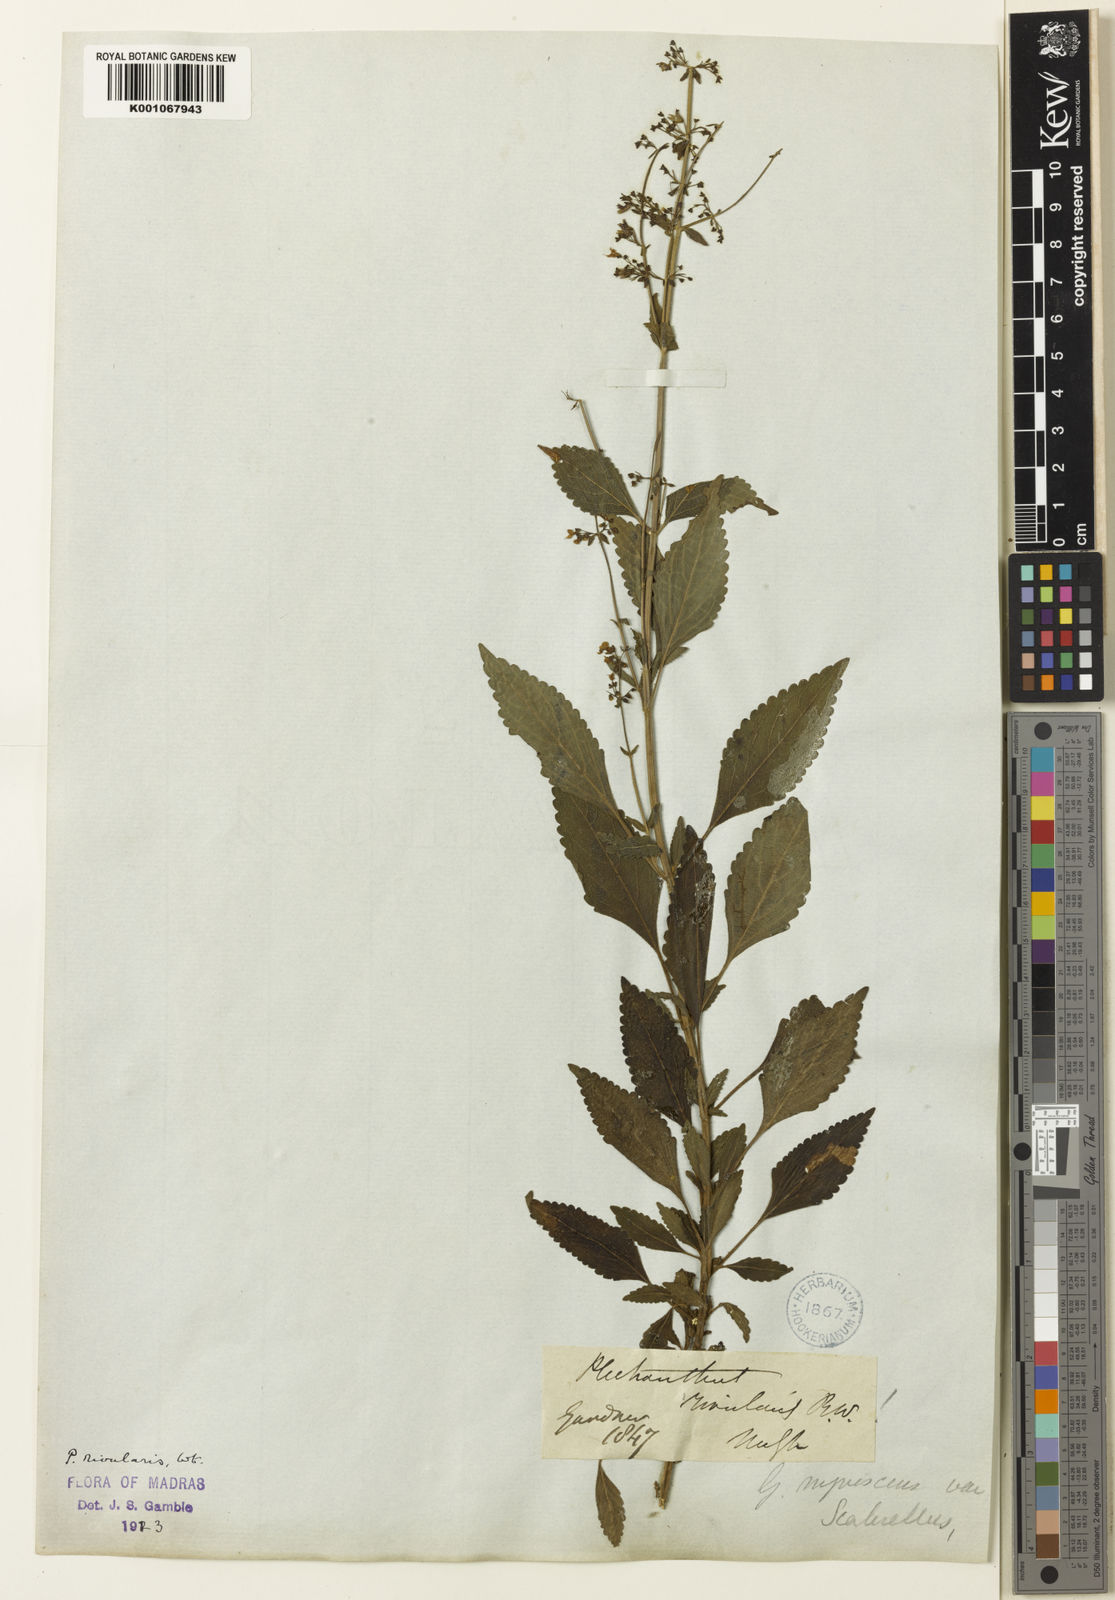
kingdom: Plantae
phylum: Tracheophyta
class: Magnoliopsida
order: Lamiales
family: Lamiaceae
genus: Isodon
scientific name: Isodon rivularis
